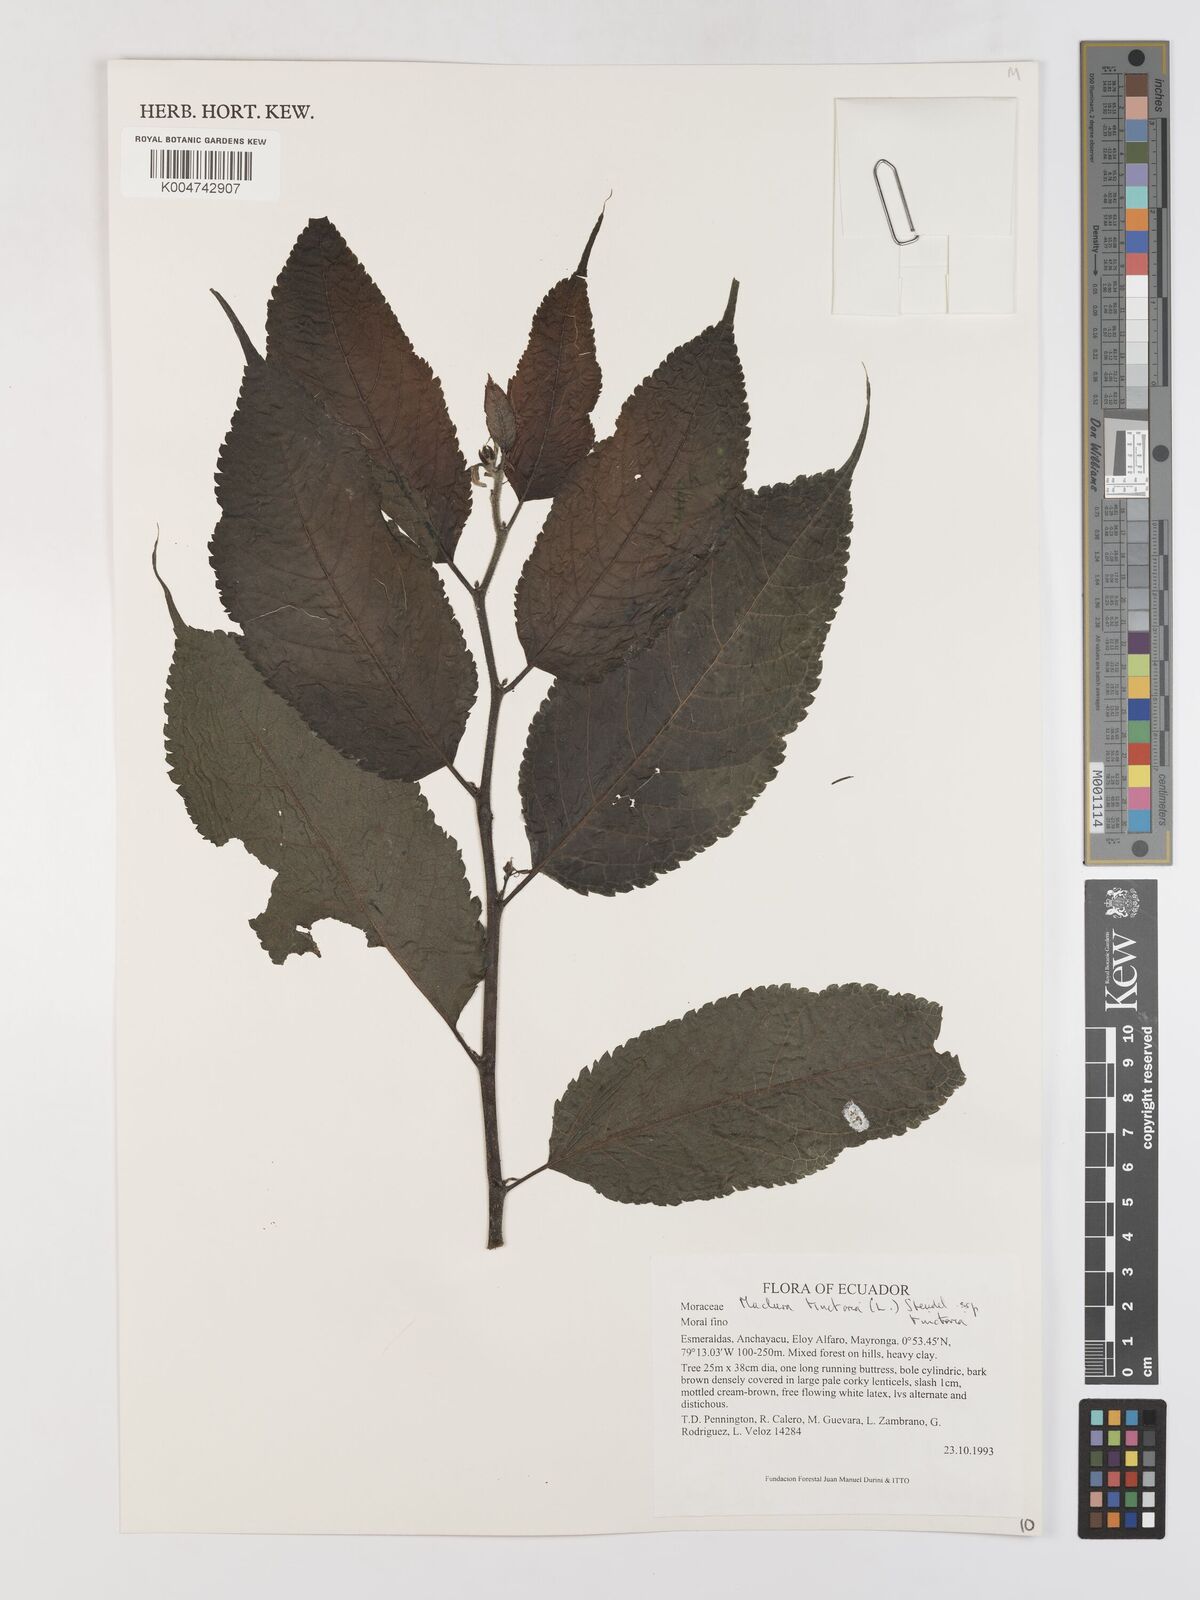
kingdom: Plantae
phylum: Tracheophyta
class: Magnoliopsida
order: Rosales
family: Moraceae
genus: Maclura
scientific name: Maclura tinctoria
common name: Old fustic
